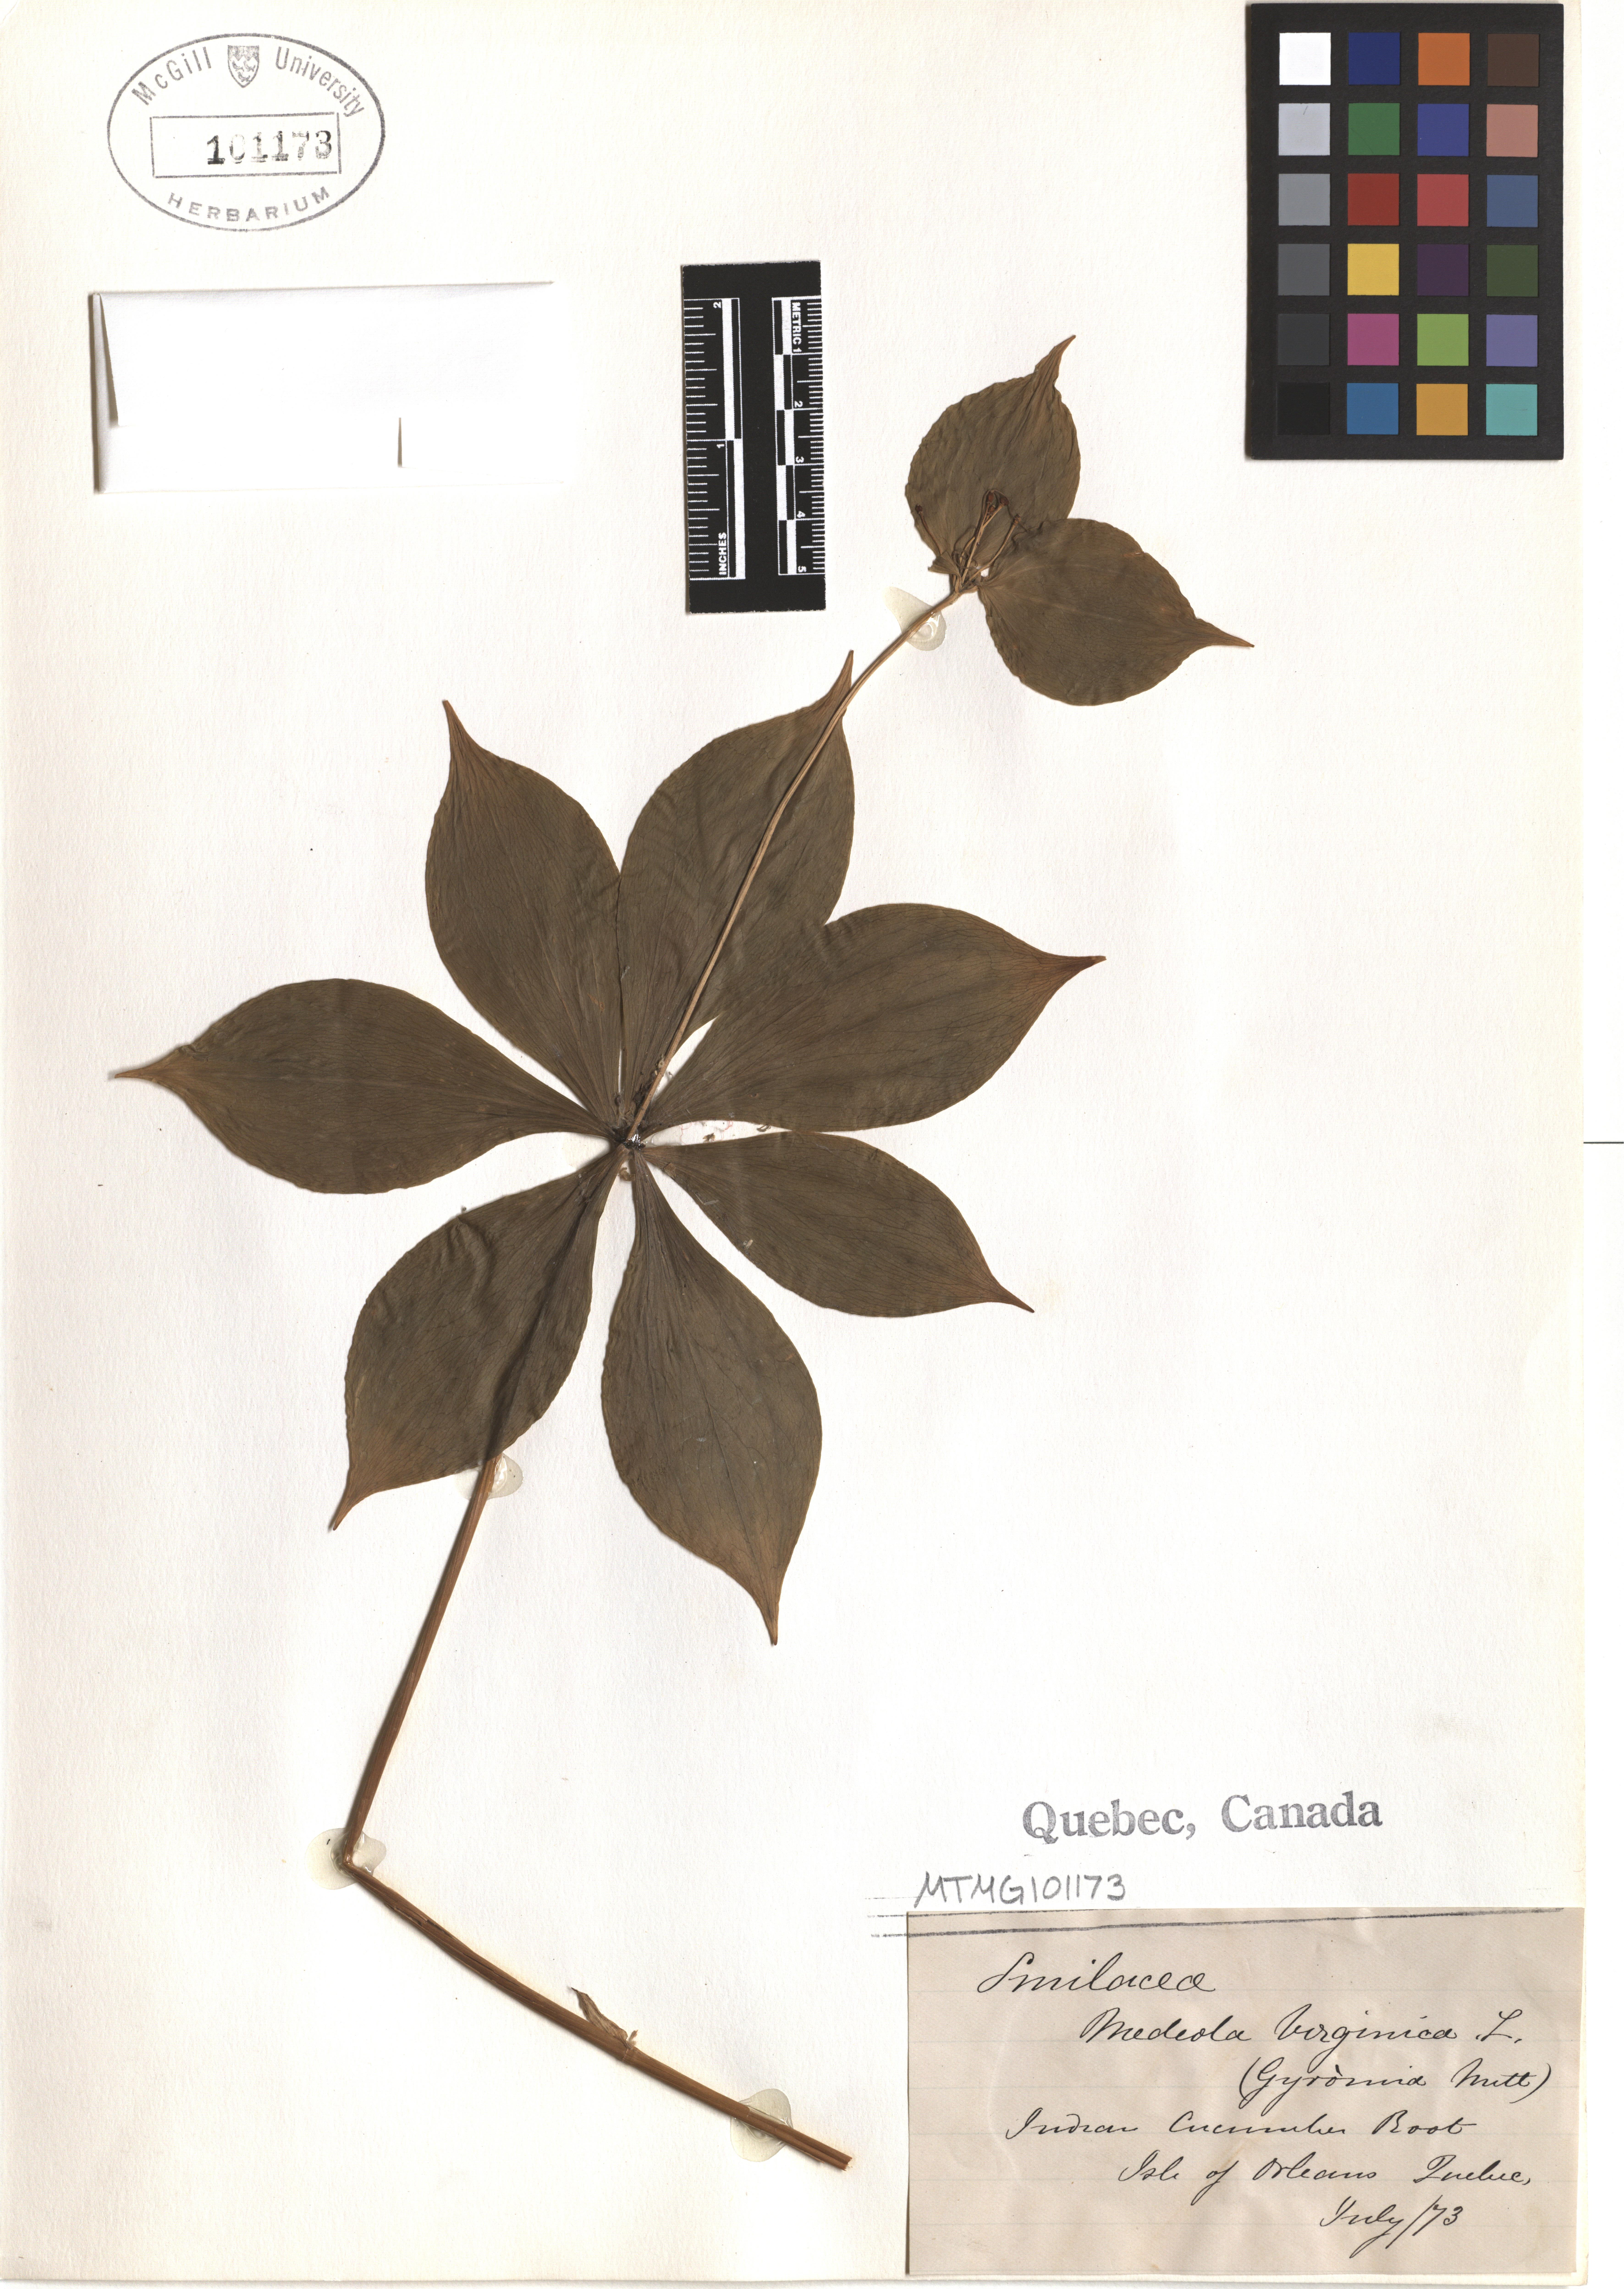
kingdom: Plantae
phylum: Tracheophyta
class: Liliopsida
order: Liliales
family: Liliaceae
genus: Medeola
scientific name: Medeola virginiana
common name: Indian cucumber-root
